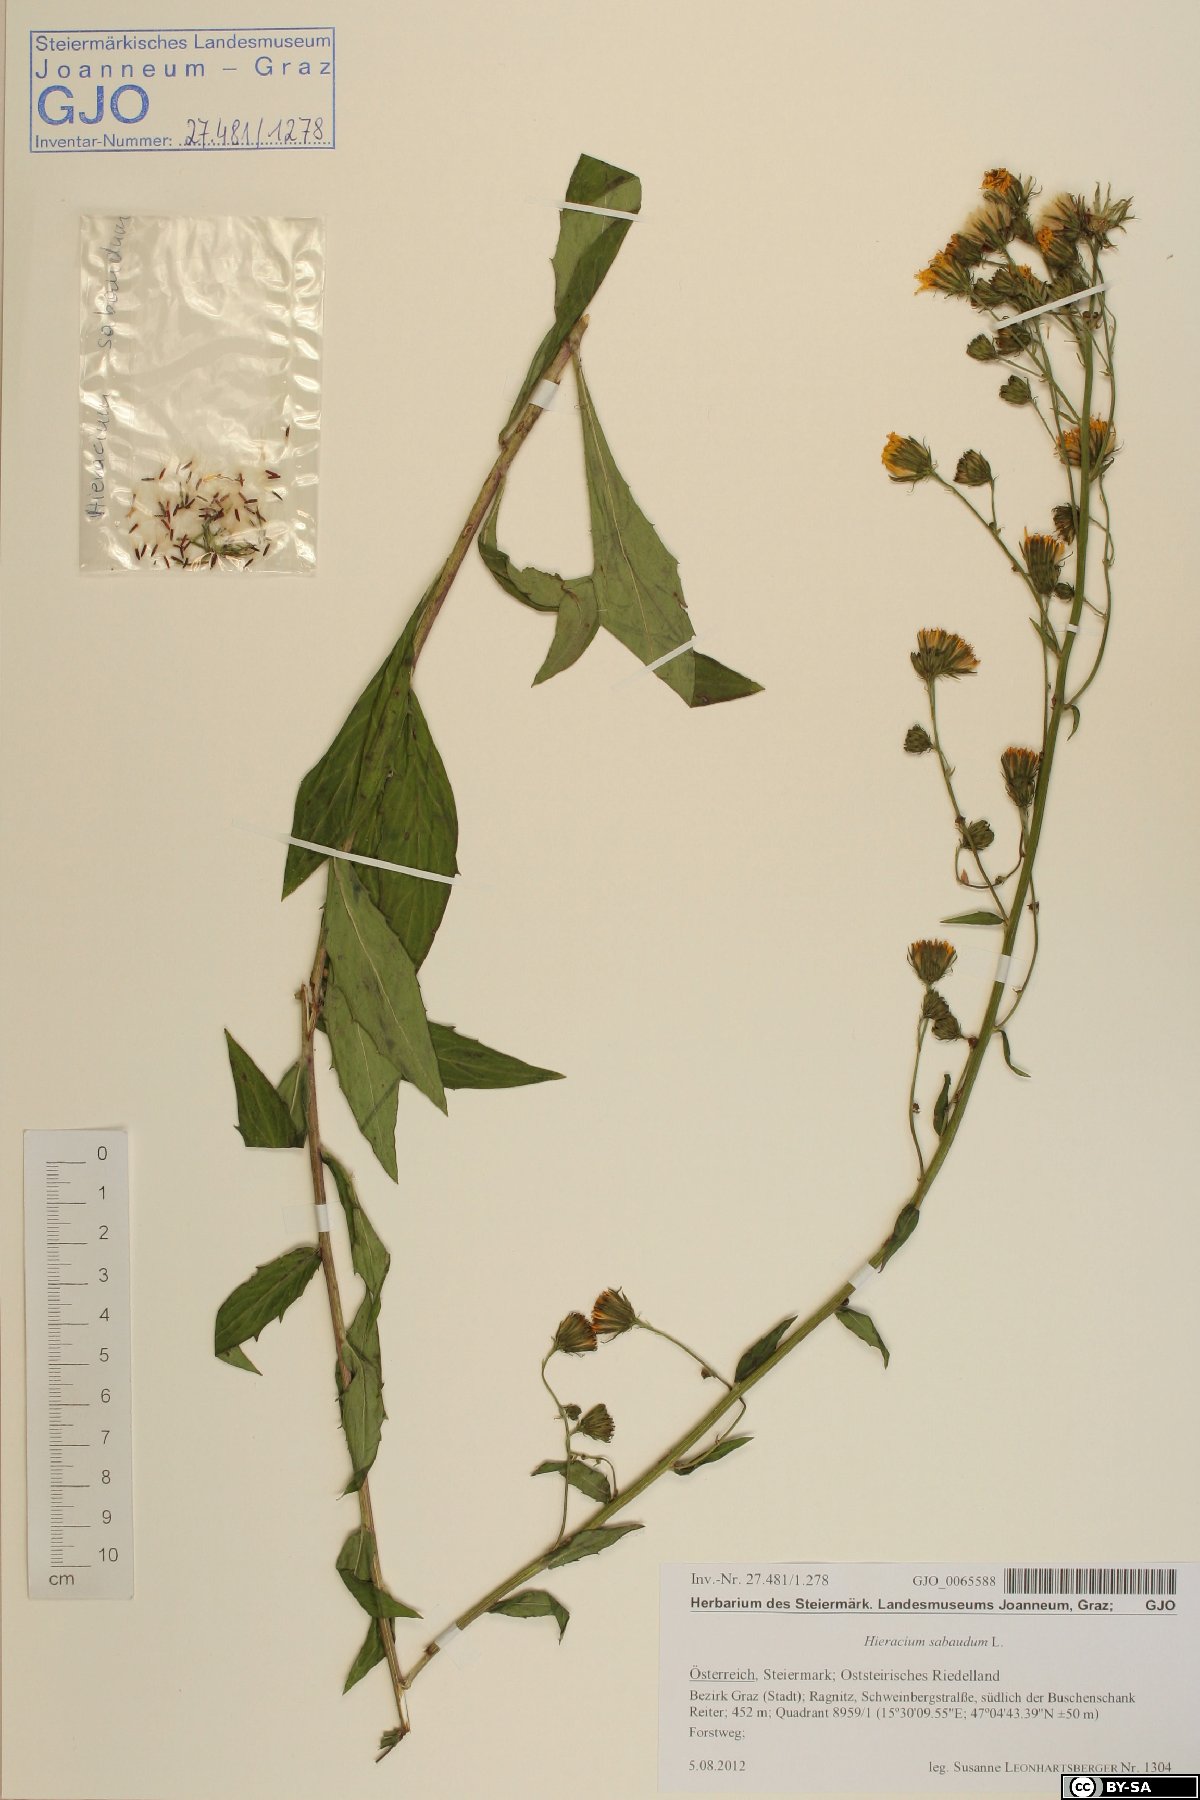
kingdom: Plantae
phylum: Tracheophyta
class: Magnoliopsida
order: Asterales
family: Asteraceae
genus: Hieracium
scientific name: Hieracium sabaudum
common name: New england hawkweed
